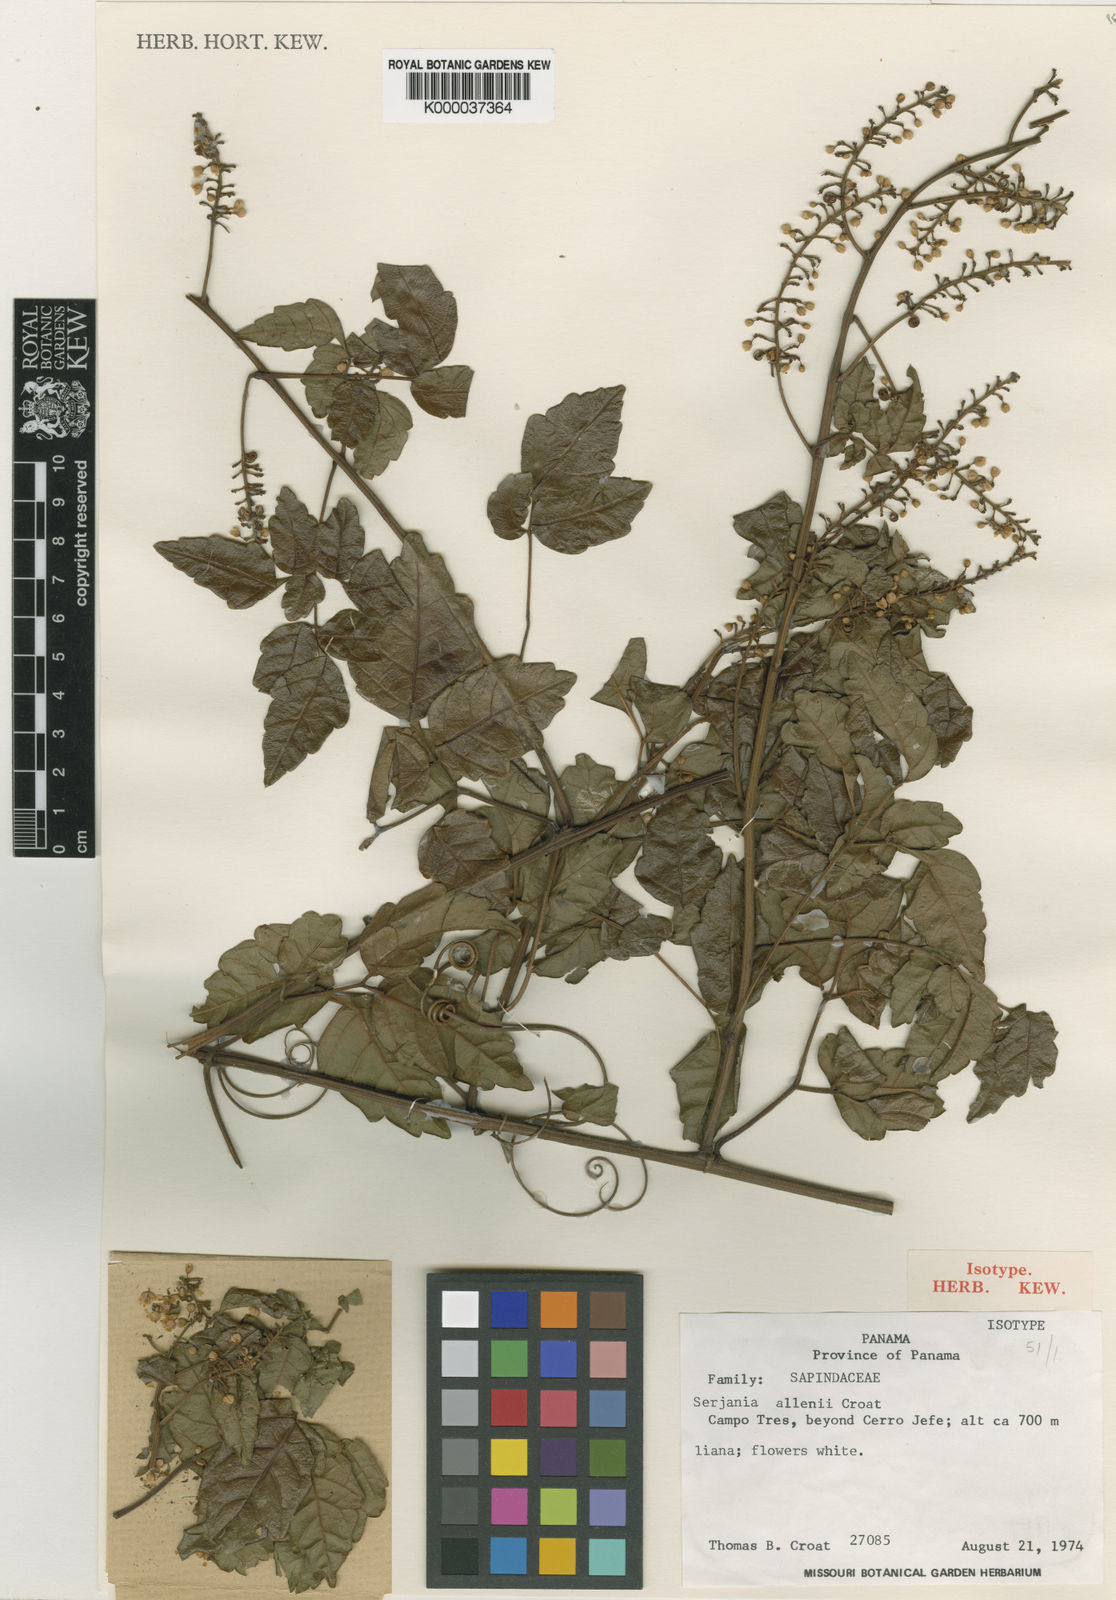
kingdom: Plantae
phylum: Tracheophyta
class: Magnoliopsida
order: Sapindales
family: Sapindaceae
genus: Serjania
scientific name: Serjania membranacea
